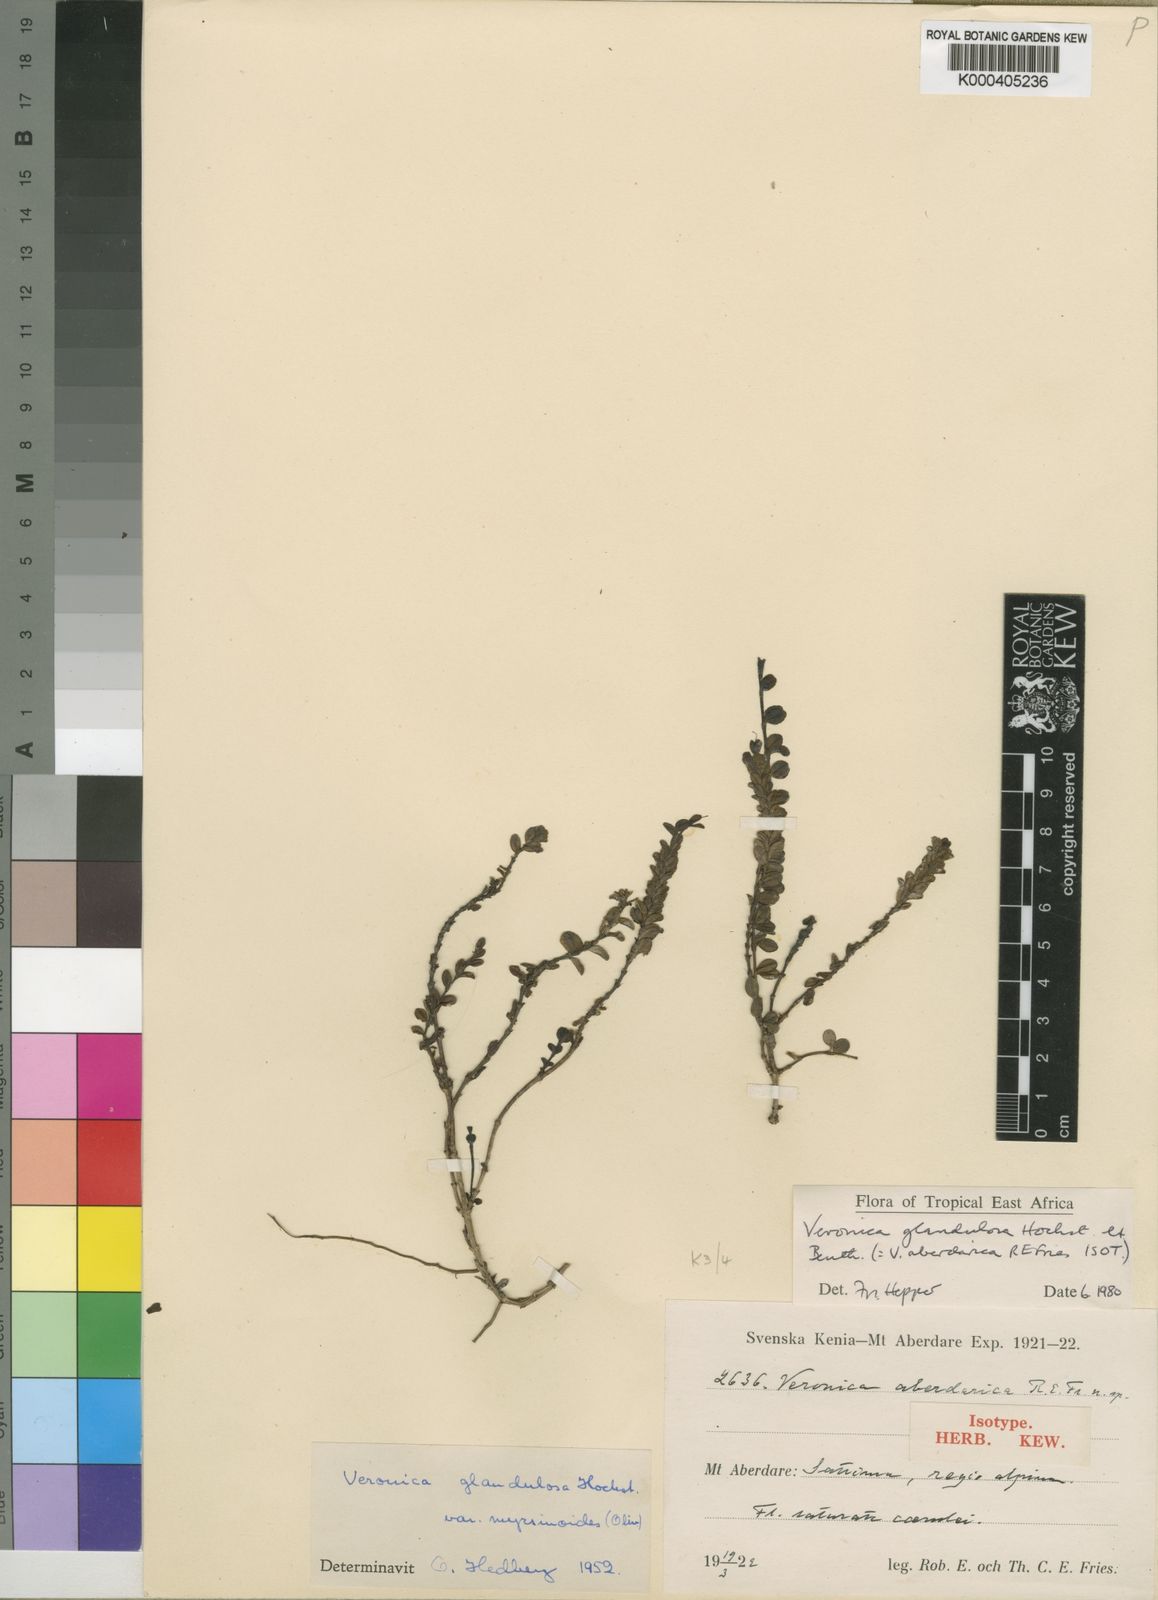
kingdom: Plantae
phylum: Tracheophyta
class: Magnoliopsida
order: Lamiales
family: Plantaginaceae
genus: Veronica
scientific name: Veronica glandulosa
